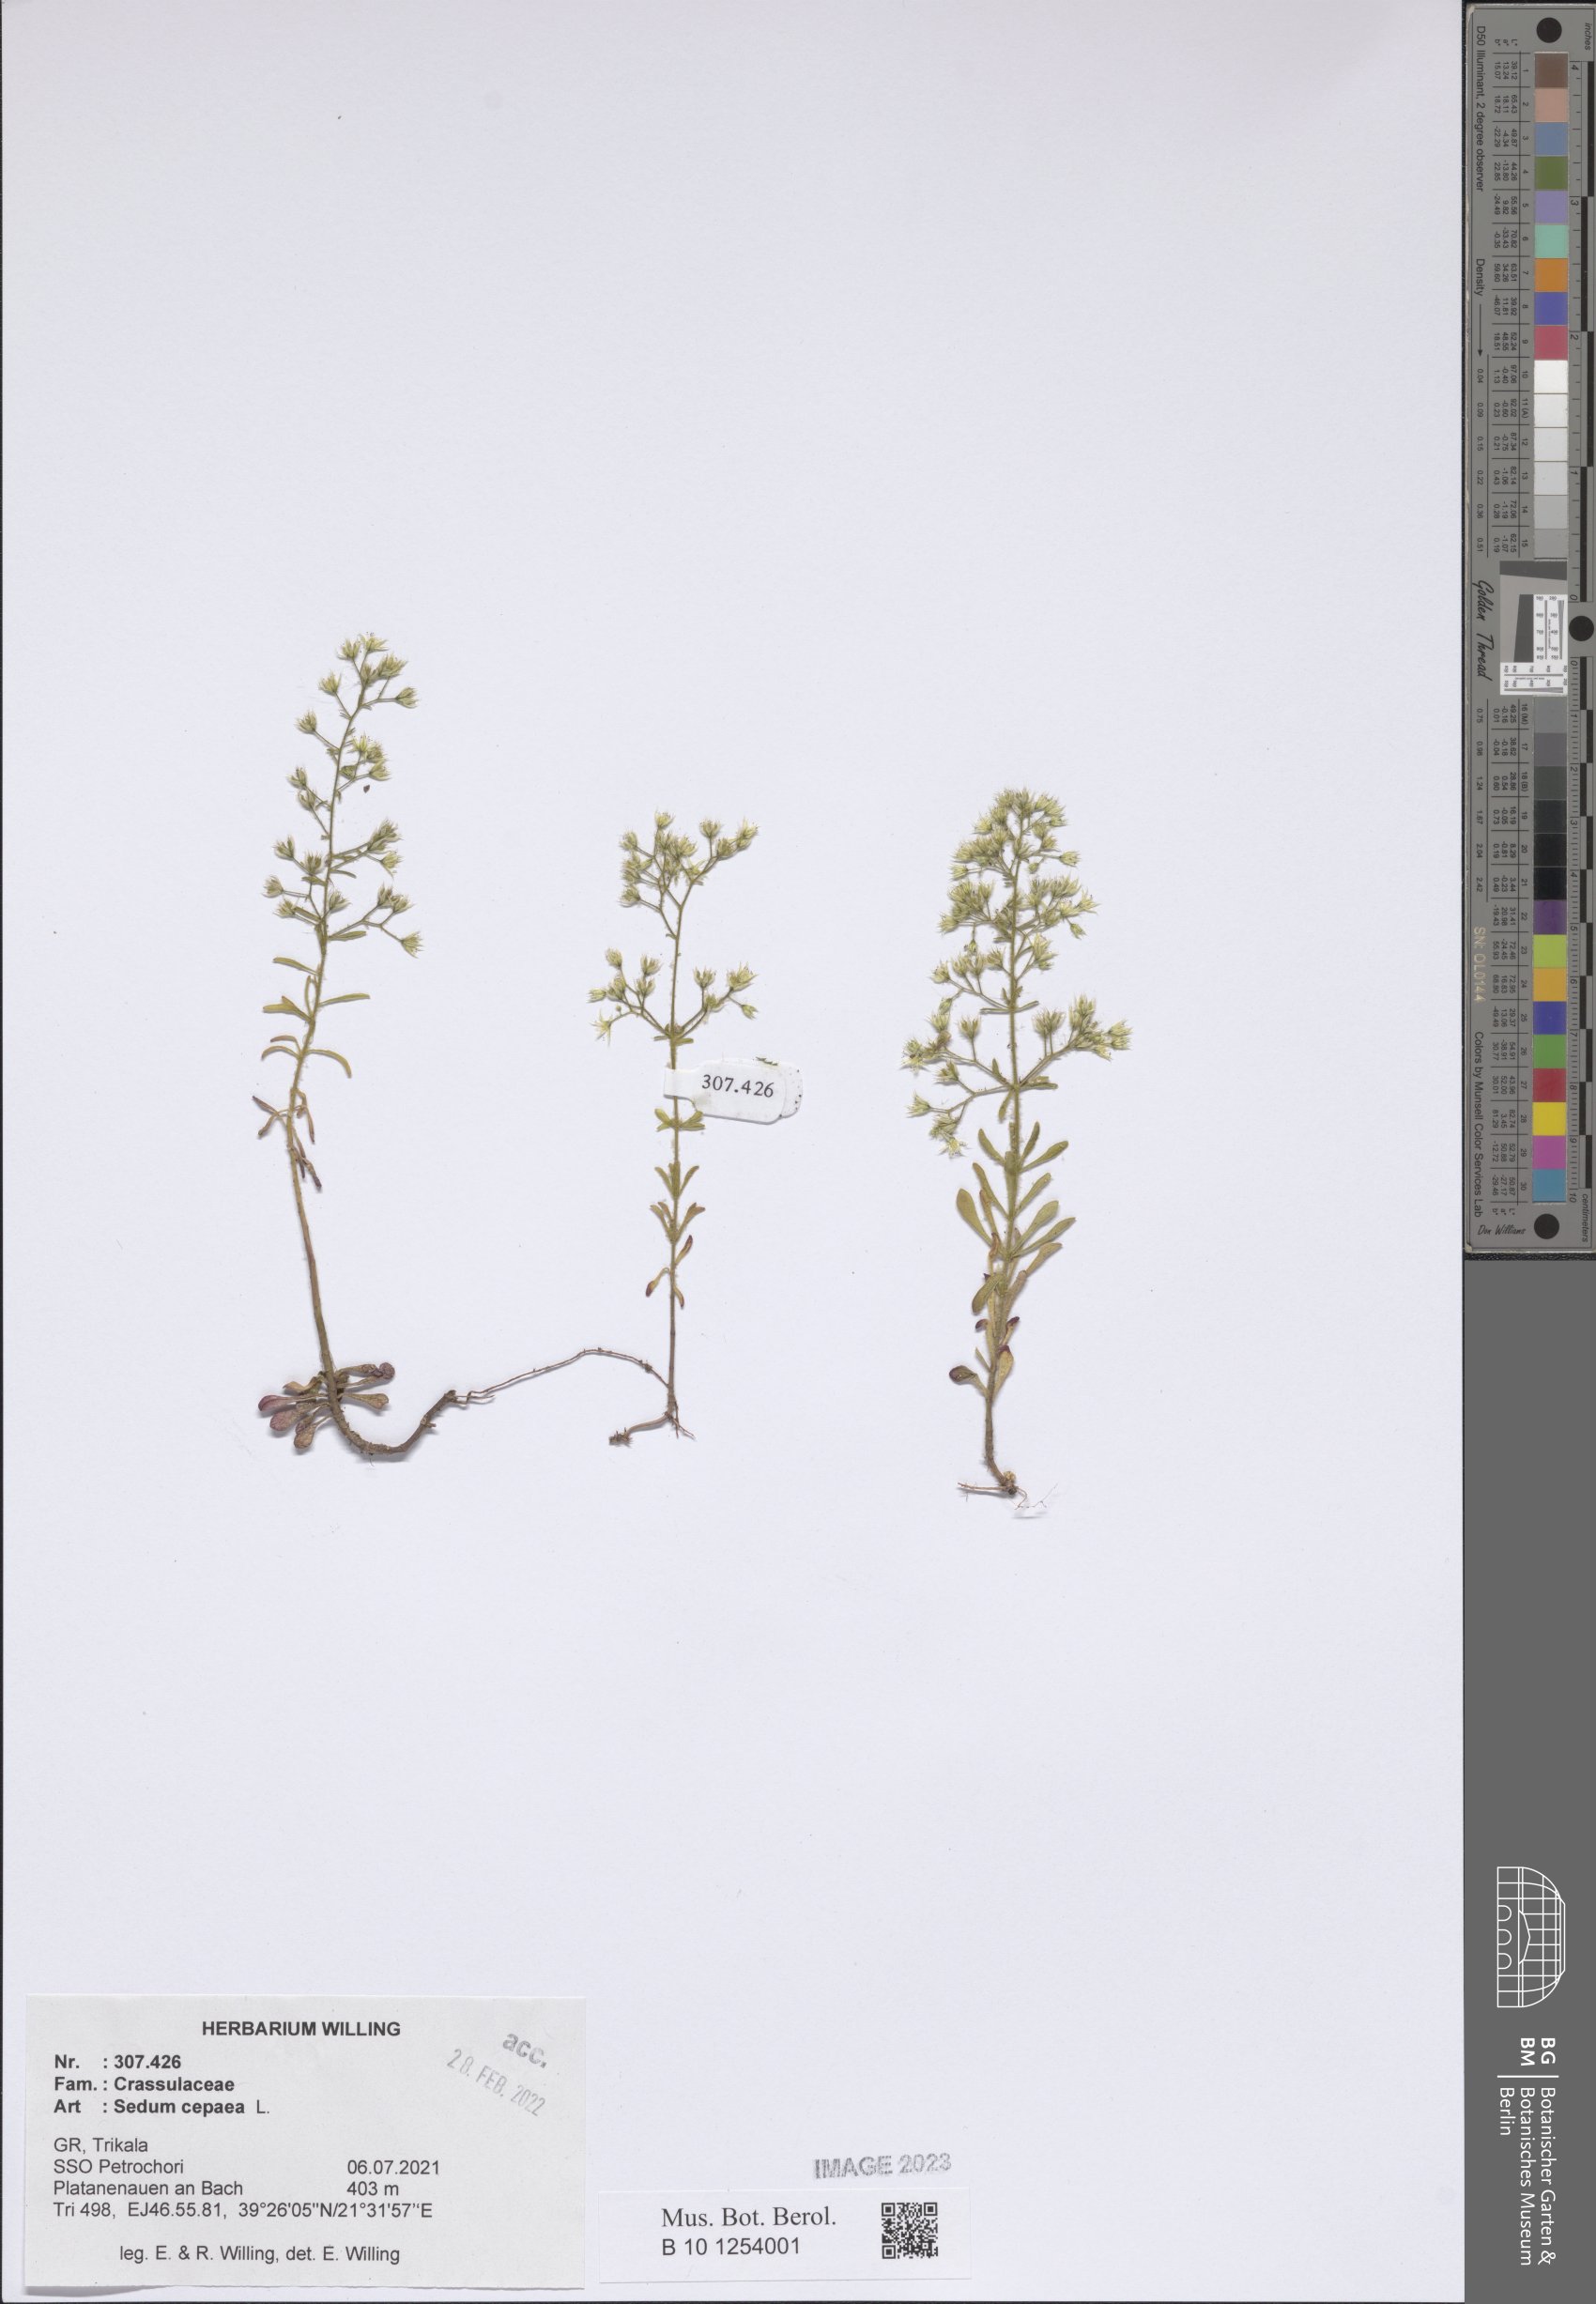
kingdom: Plantae
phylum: Tracheophyta
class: Magnoliopsida
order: Saxifragales
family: Crassulaceae
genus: Sedum
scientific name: Sedum cepaea
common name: Pink stonecrop
